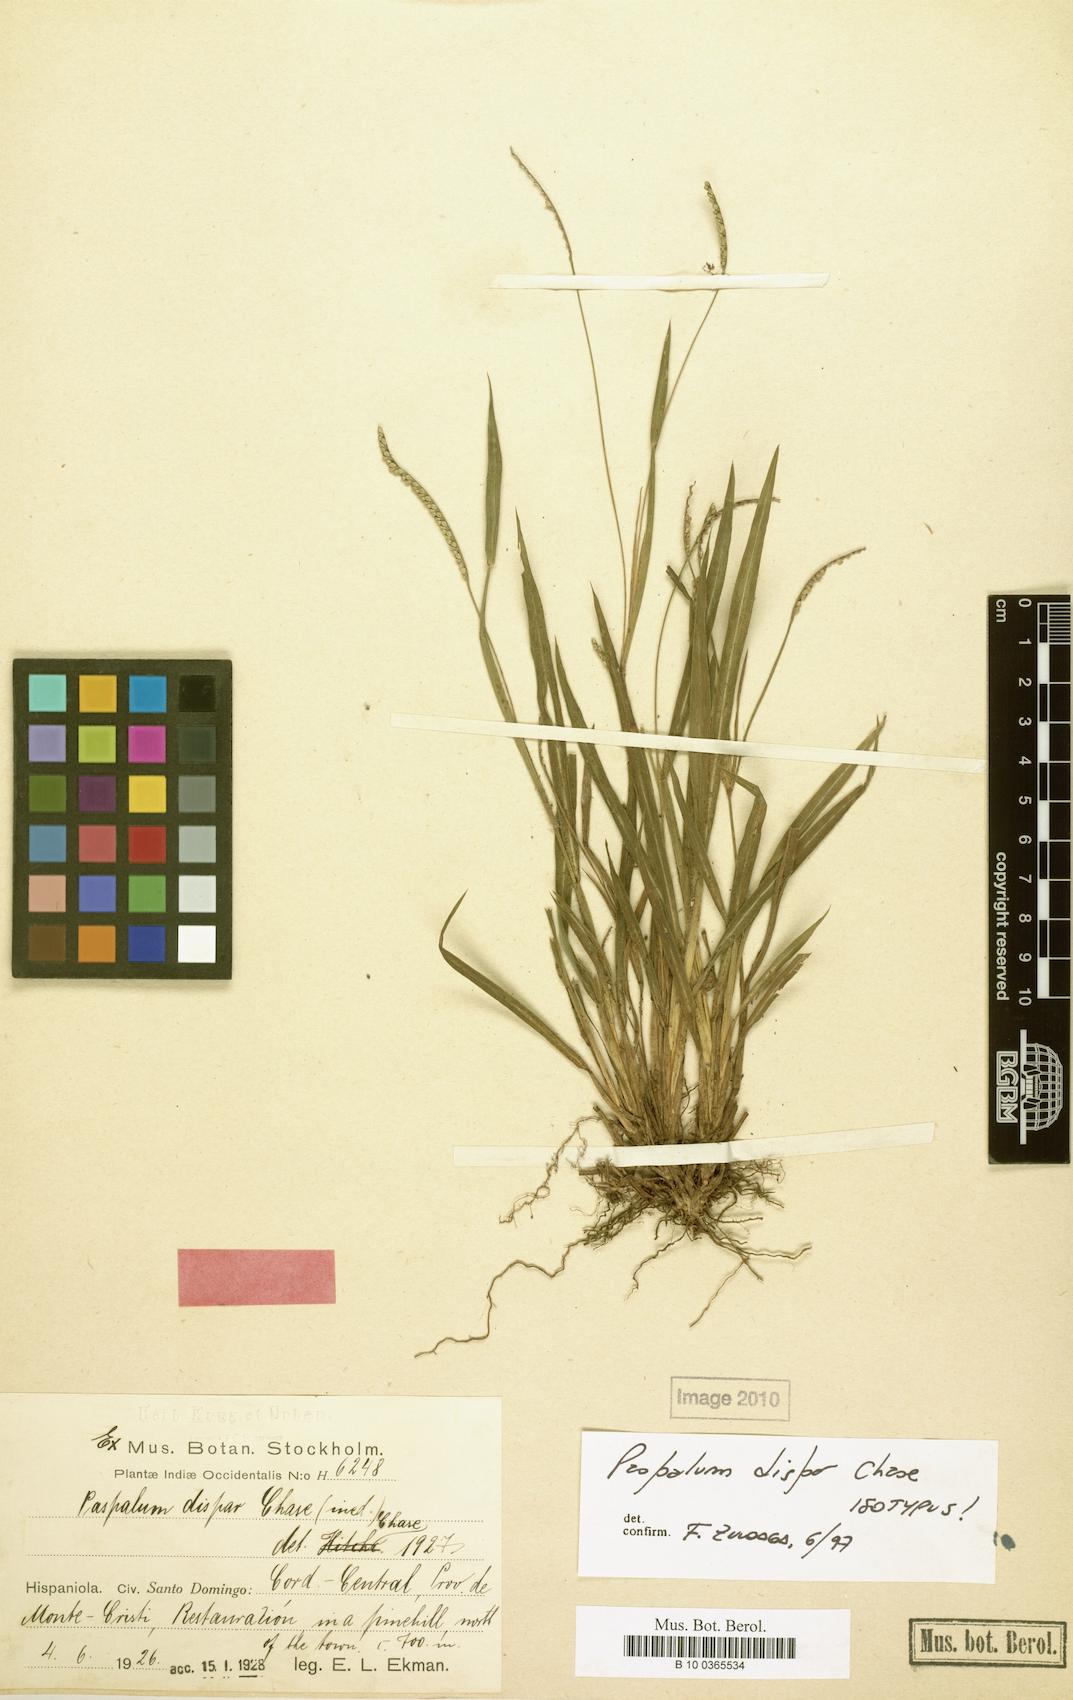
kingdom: Plantae
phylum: Tracheophyta
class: Liliopsida
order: Poales
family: Poaceae
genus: Paspalum
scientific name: Paspalum dispar
